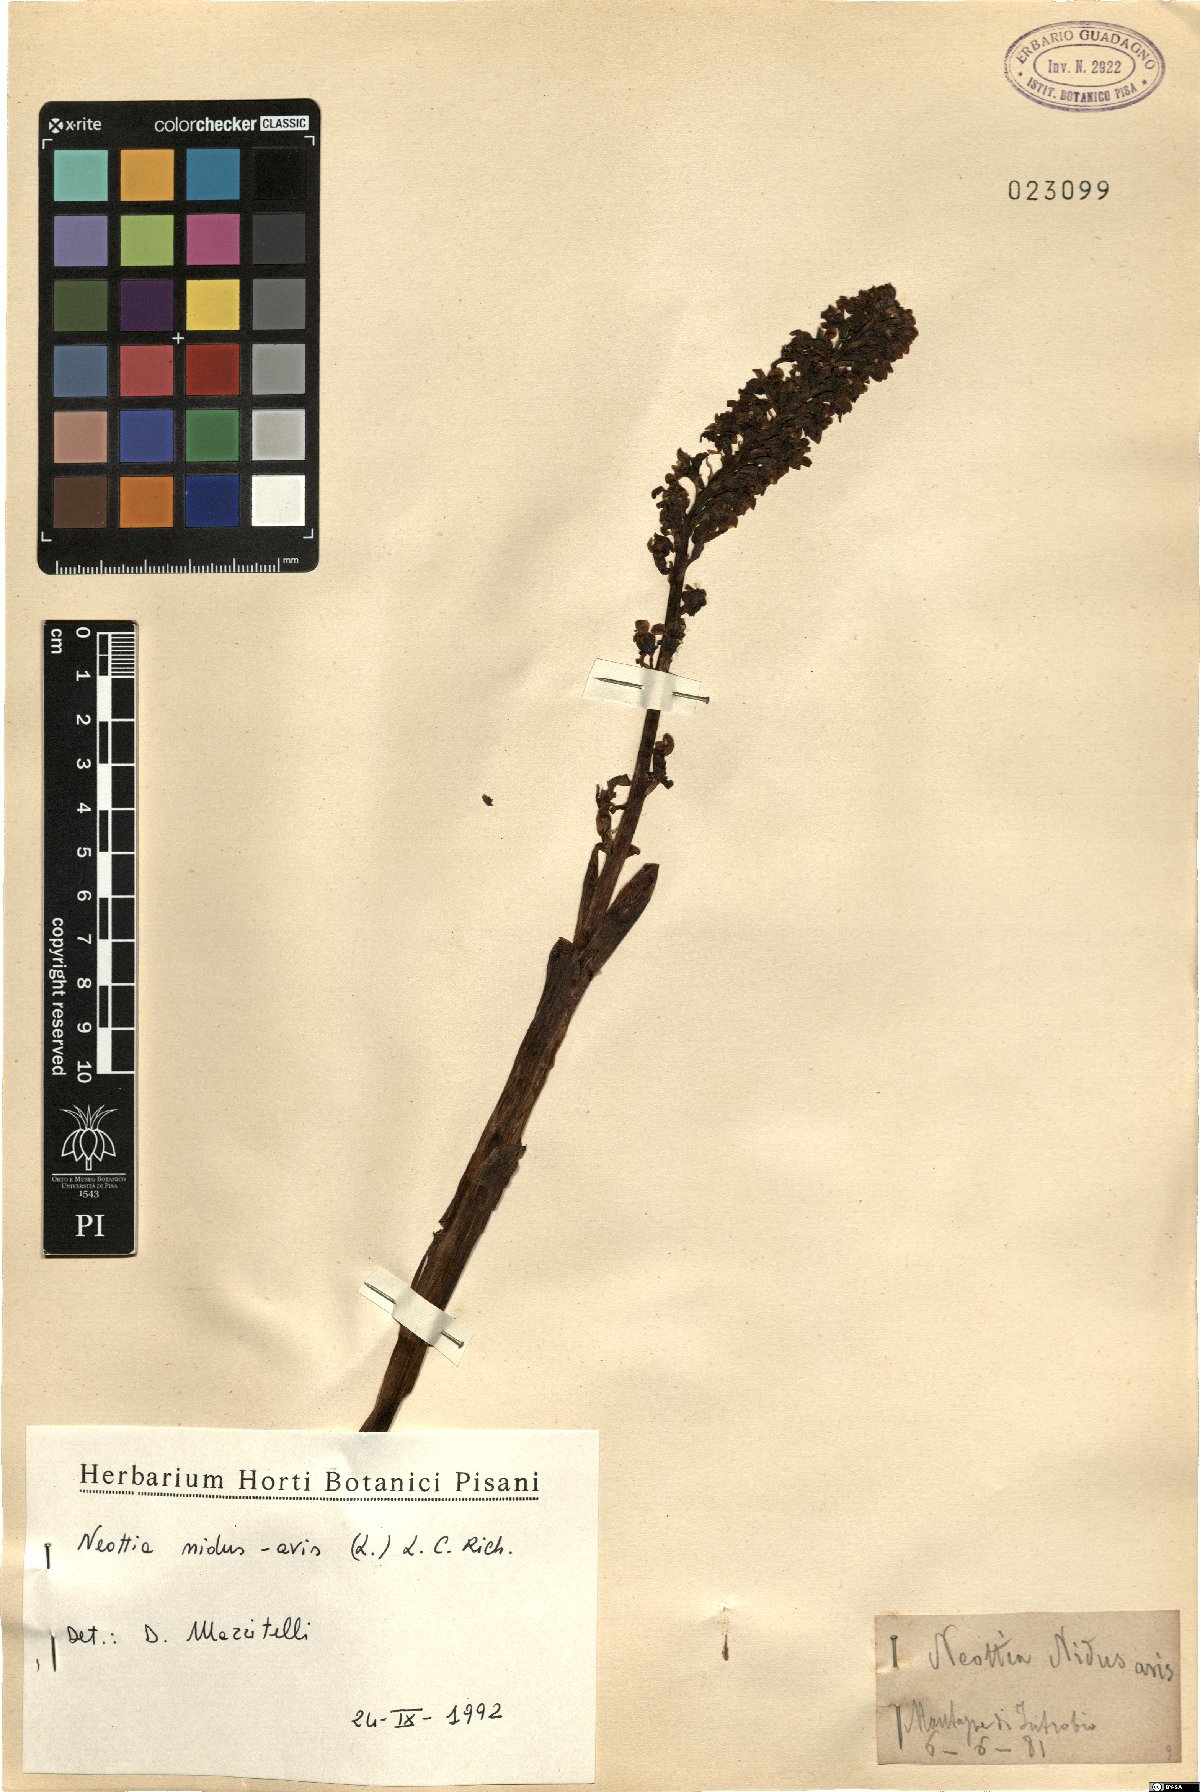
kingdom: Plantae
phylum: Tracheophyta
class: Liliopsida
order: Asparagales
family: Orchidaceae
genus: Neottia
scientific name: Neottia nidus-avis
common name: Bird's-nest orchid
